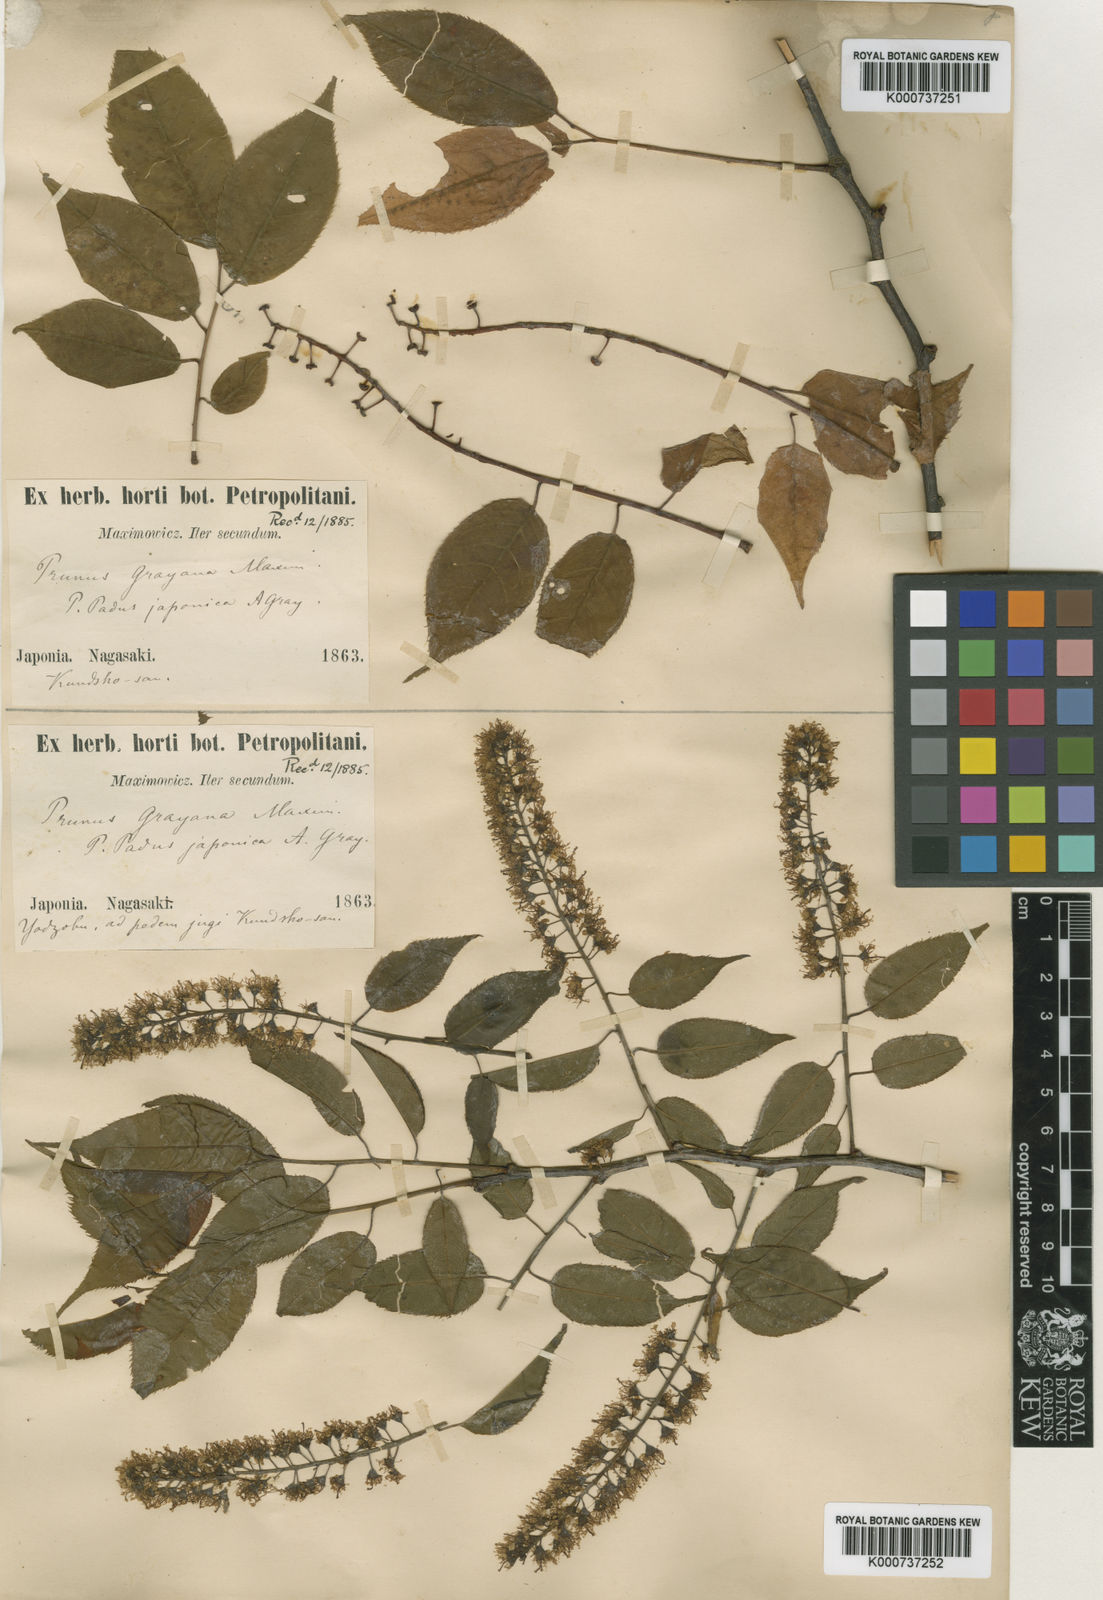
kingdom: Plantae
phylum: Tracheophyta
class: Magnoliopsida
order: Rosales
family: Rosaceae
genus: Prunus
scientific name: Prunus grayana
